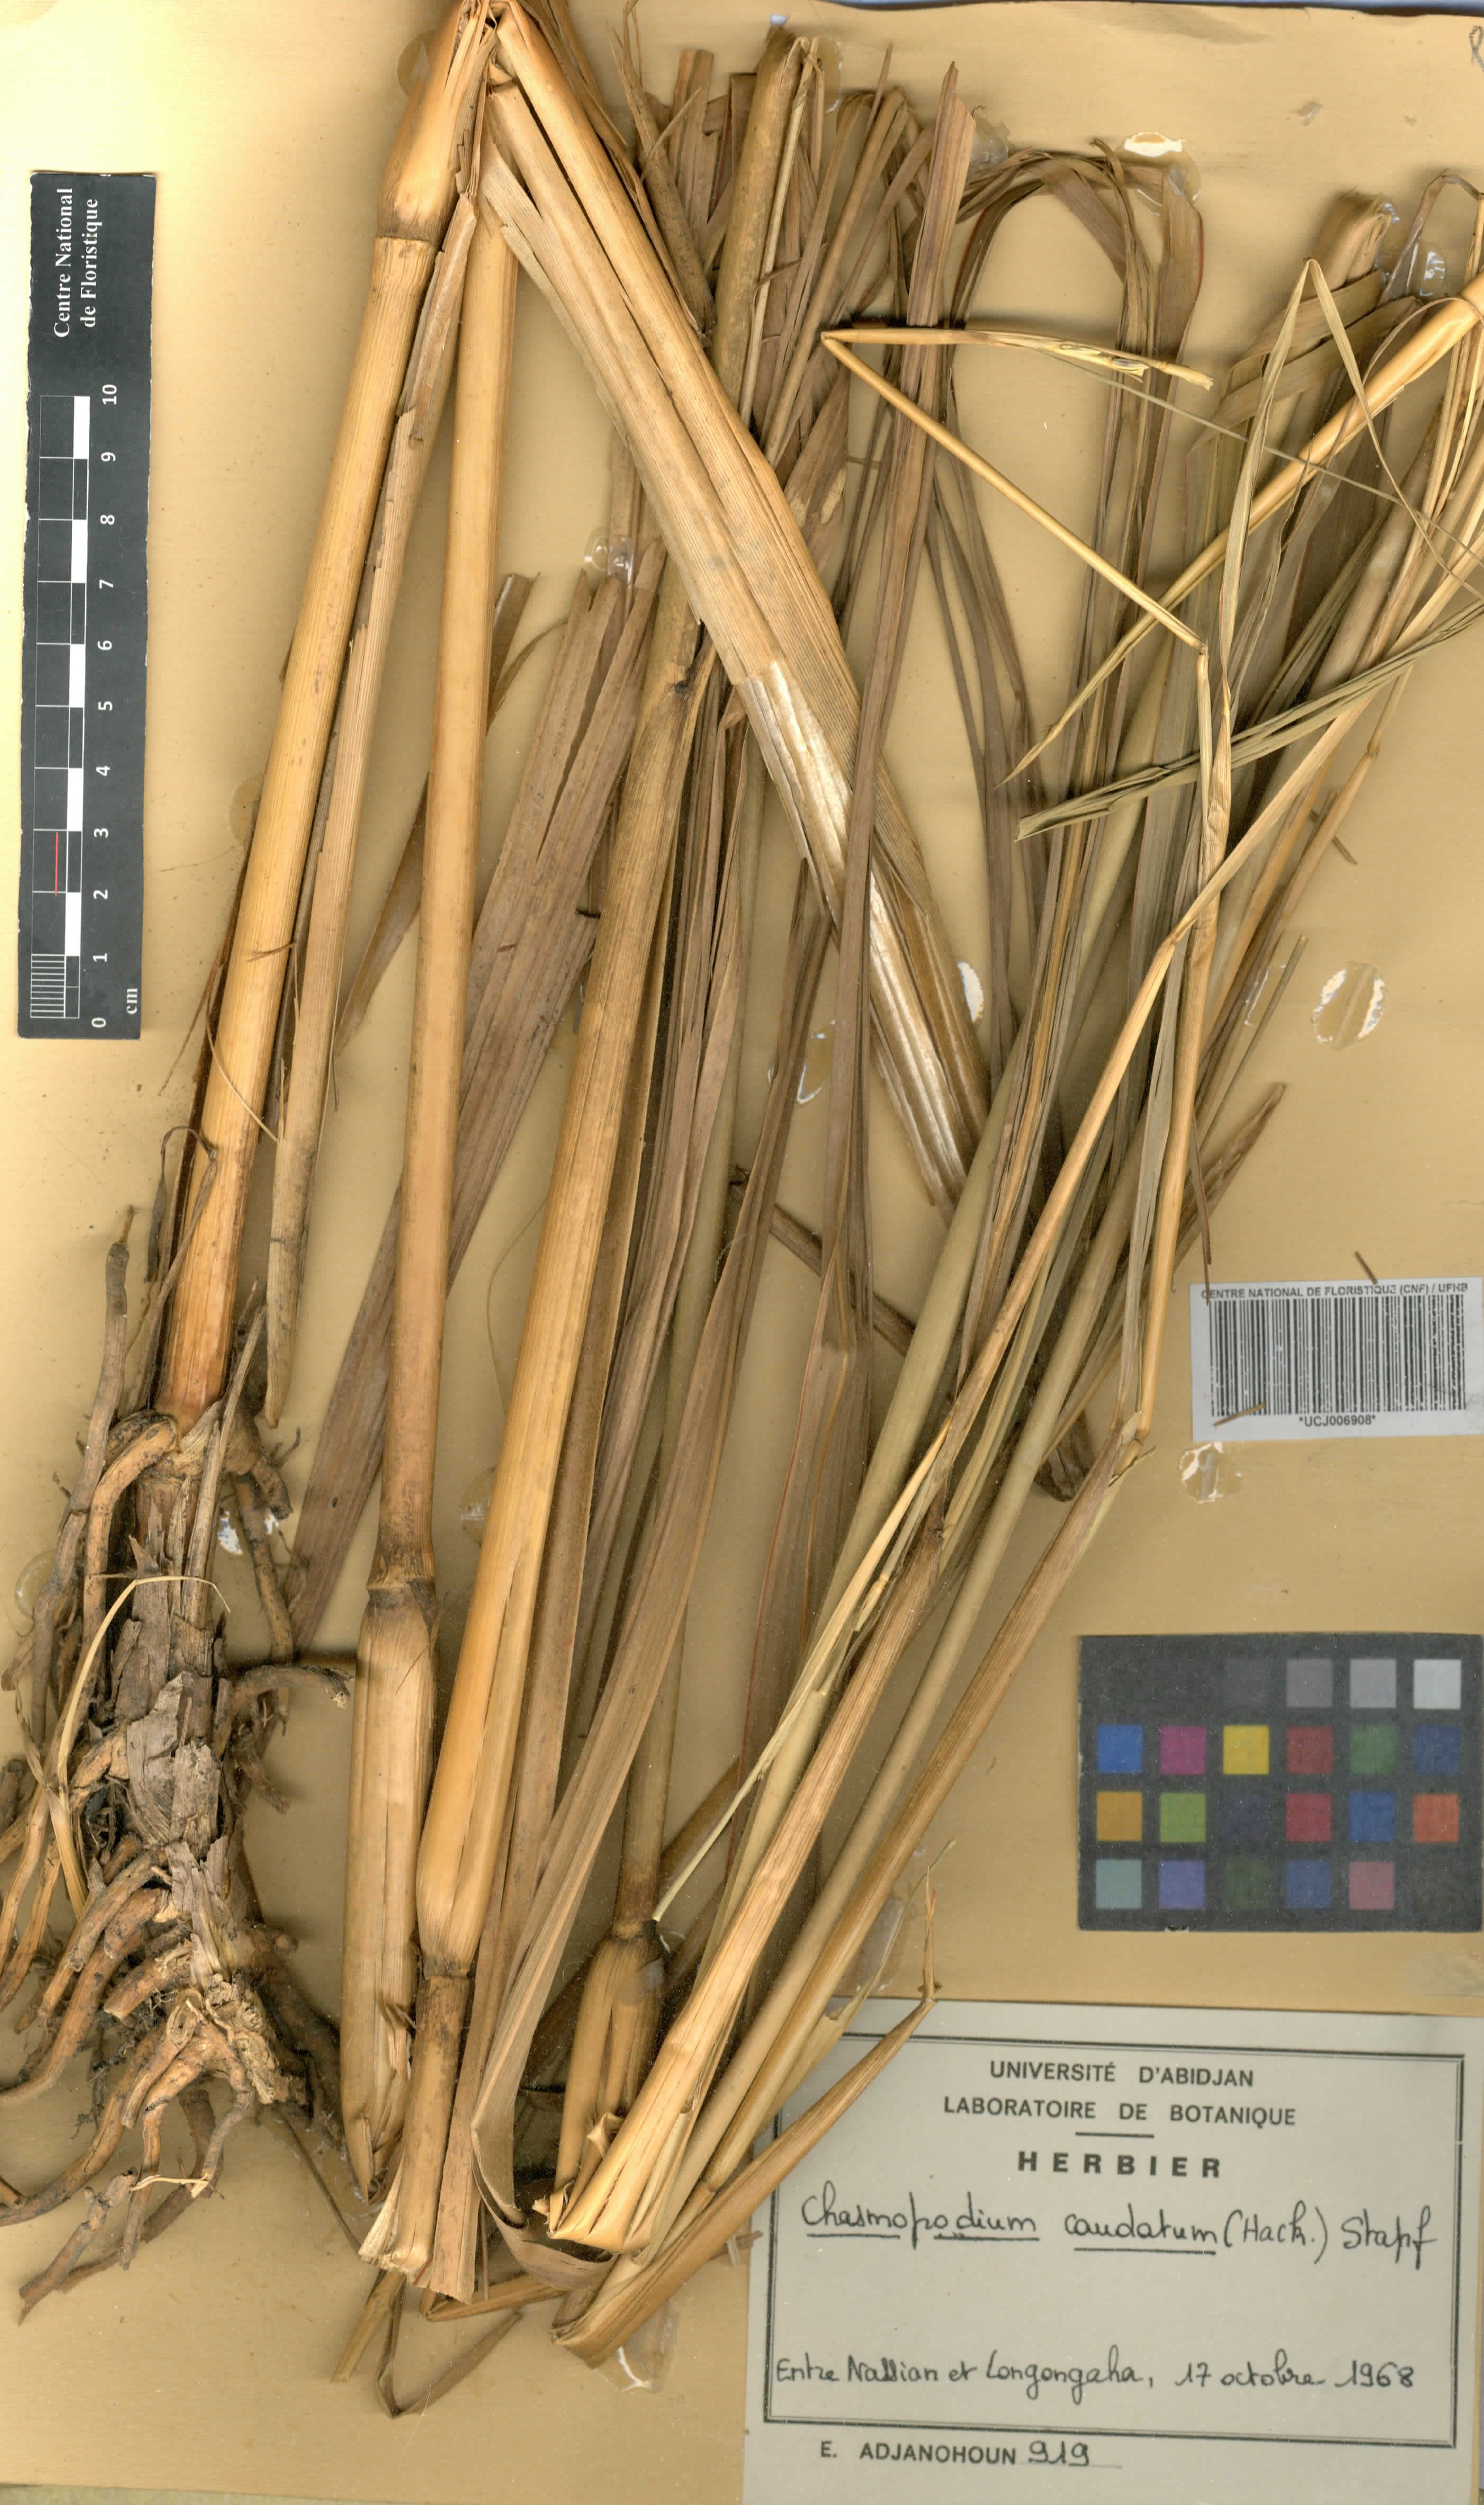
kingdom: Plantae
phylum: Tracheophyta
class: Liliopsida
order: Poales
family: Poaceae
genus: Chasmopodium
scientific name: Chasmopodium caudatum
